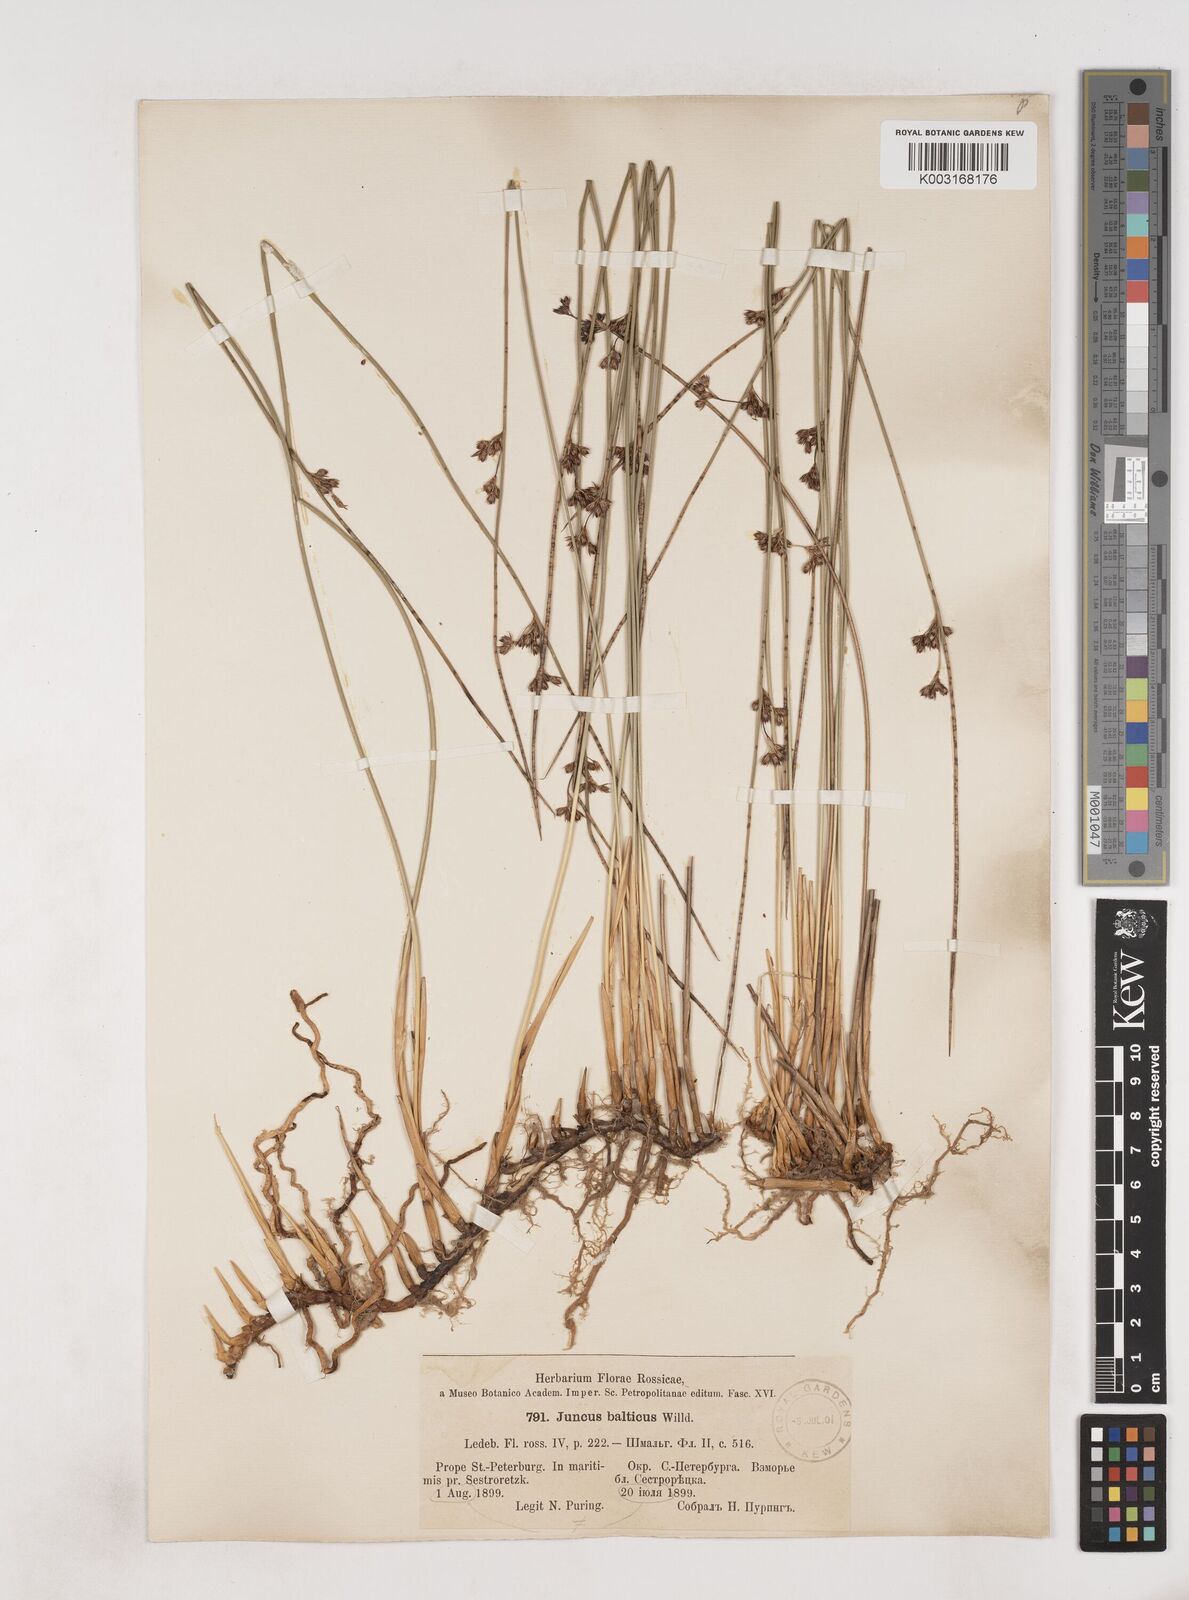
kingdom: Plantae
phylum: Tracheophyta
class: Liliopsida
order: Poales
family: Juncaceae
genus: Juncus
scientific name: Juncus balticus
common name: Baltic rush
